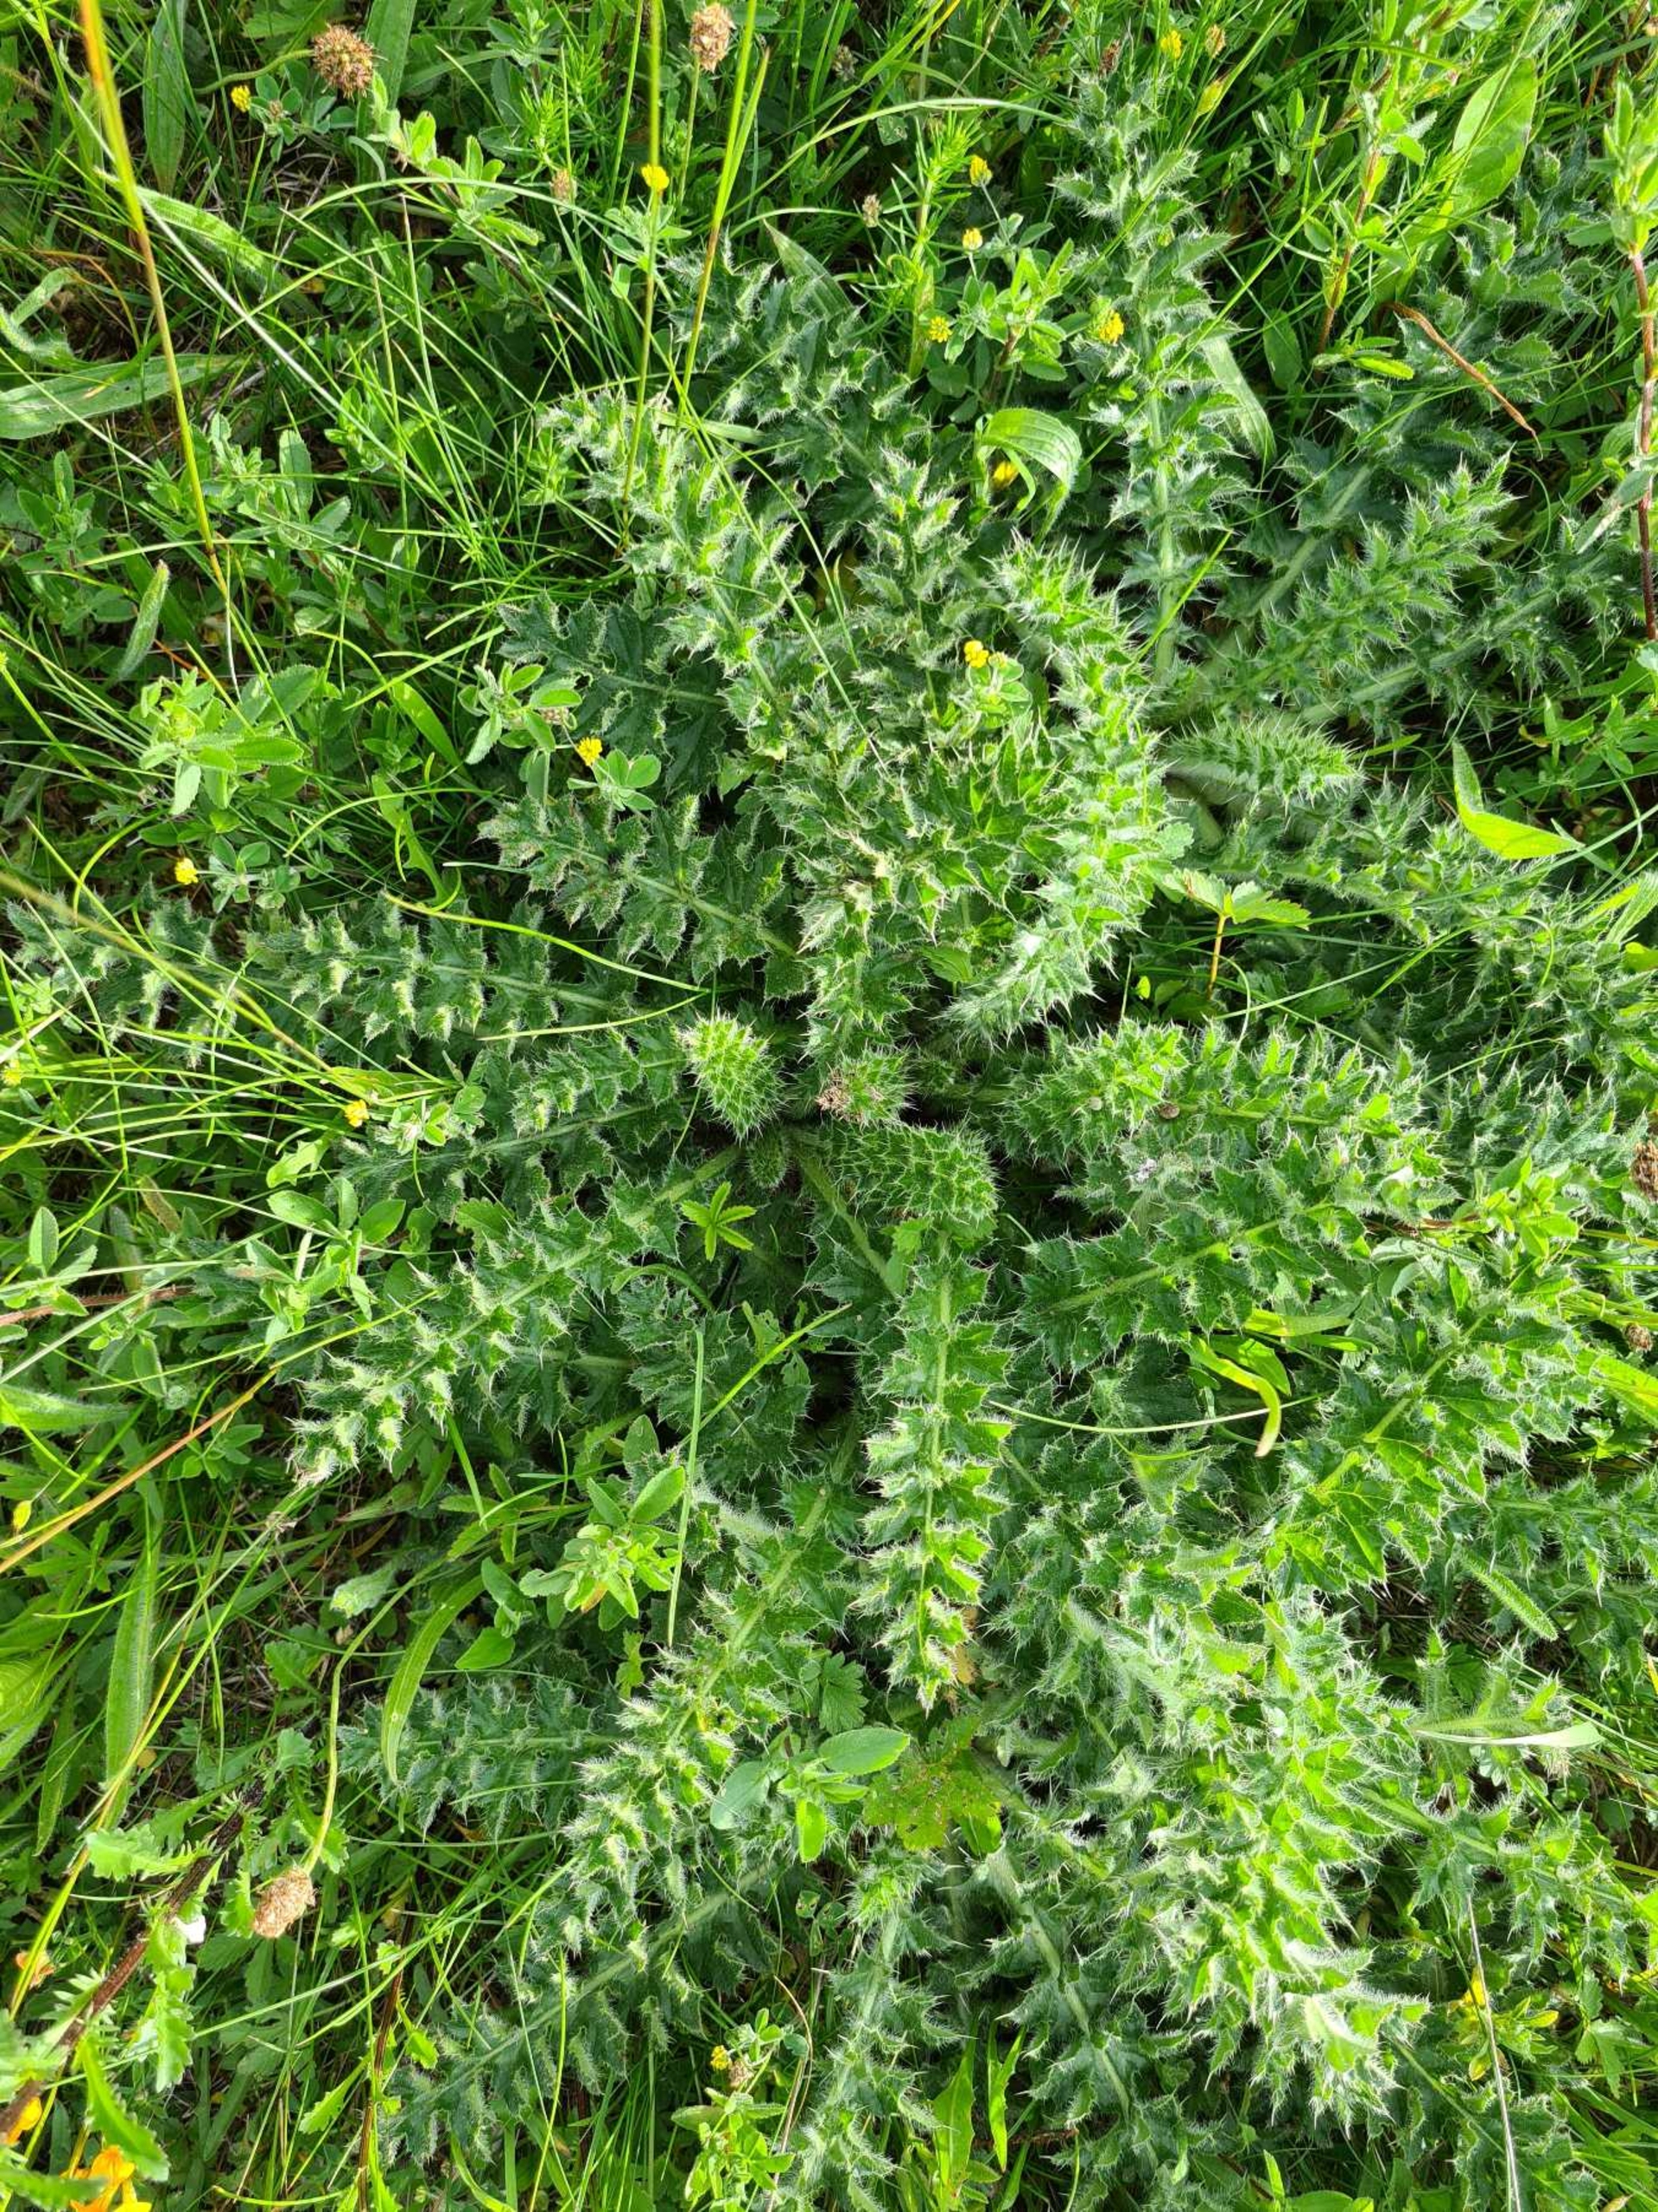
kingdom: Plantae
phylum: Tracheophyta
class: Magnoliopsida
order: Asterales
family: Asteraceae
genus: Cirsium
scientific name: Cirsium acaule
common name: Lav tidsel
